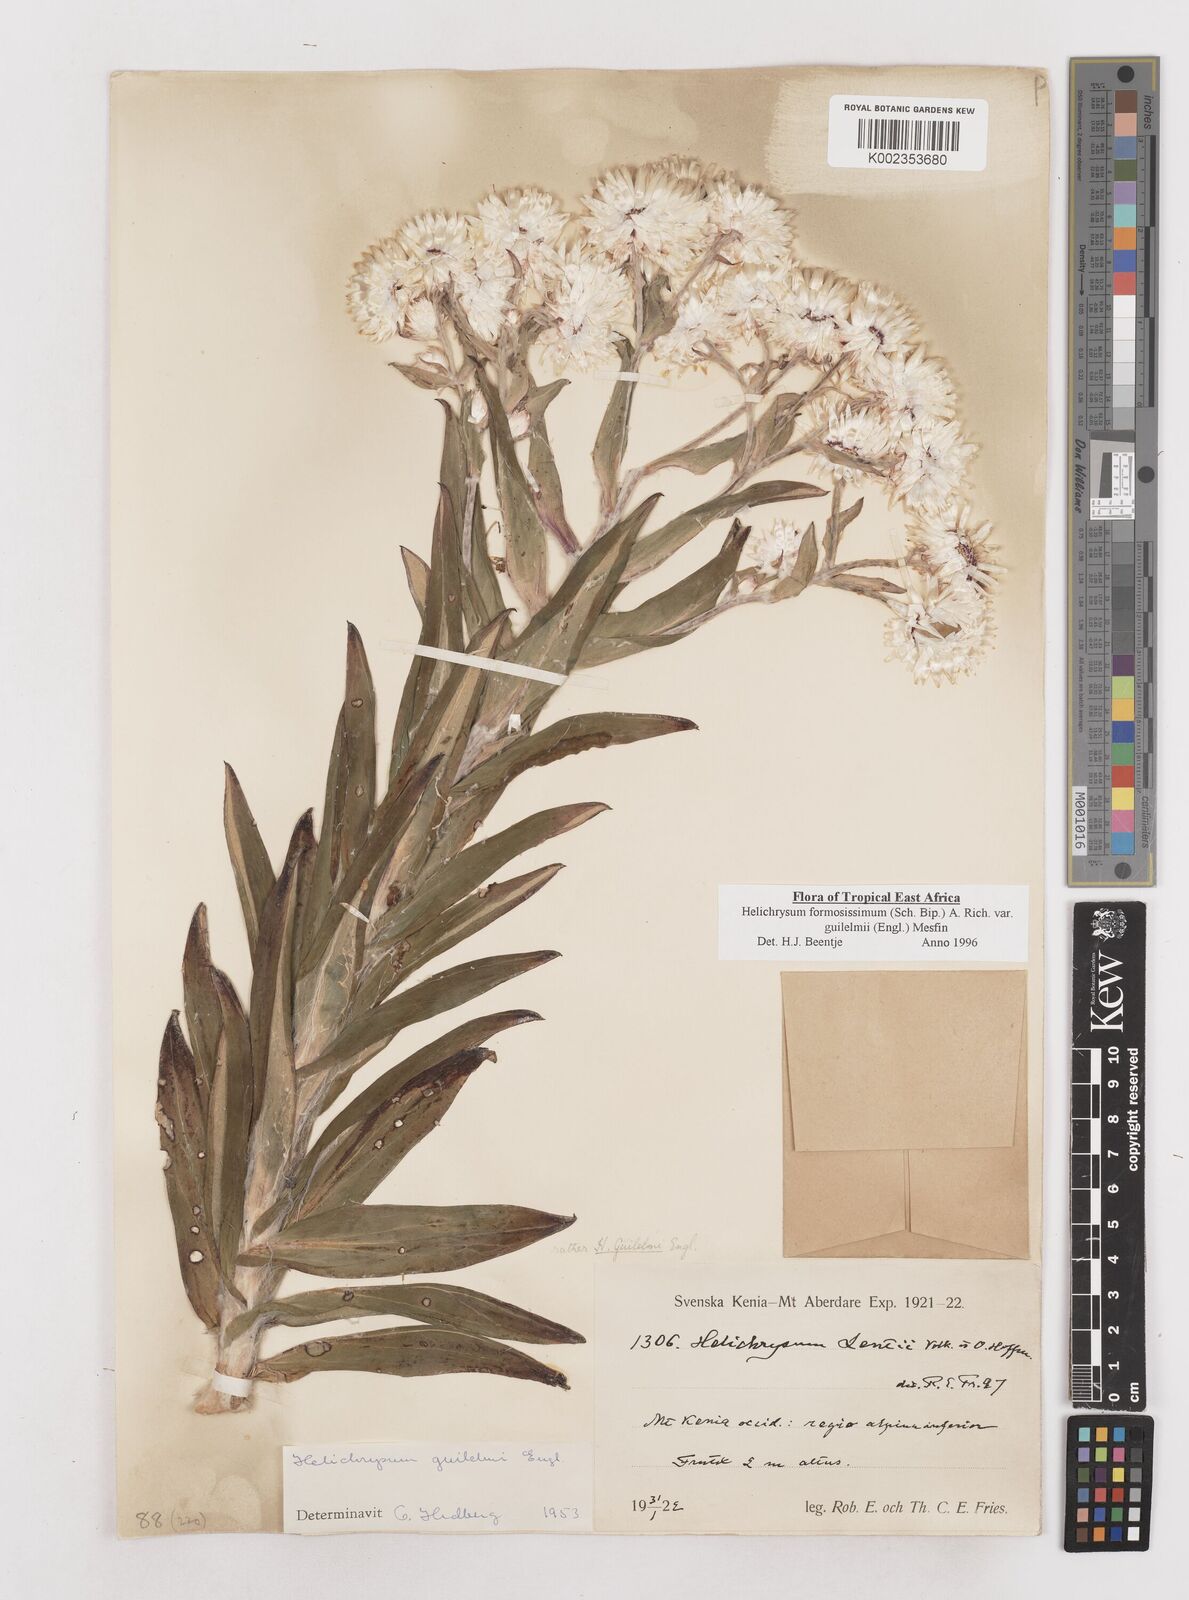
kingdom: Plantae
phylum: Tracheophyta
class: Magnoliopsida
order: Asterales
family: Asteraceae
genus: Helichrysum
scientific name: Helichrysum formosissimum
